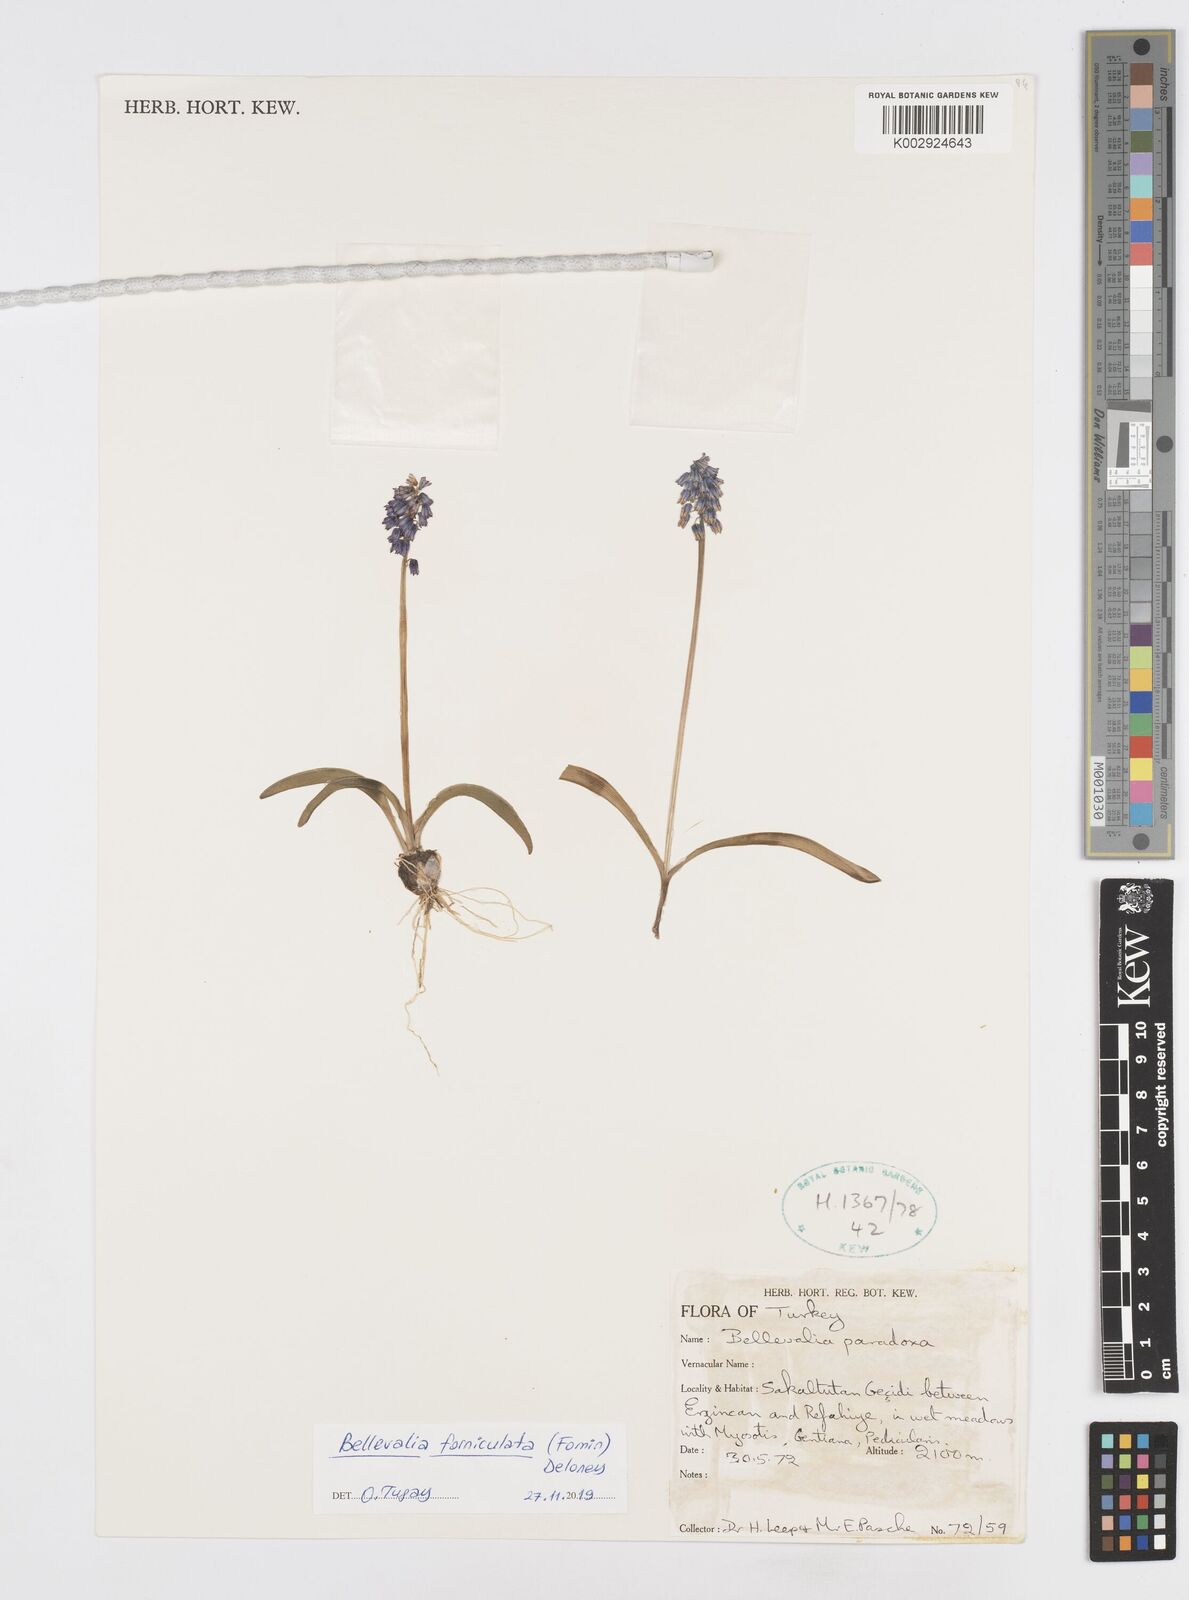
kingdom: Plantae
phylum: Tracheophyta
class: Liliopsida
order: Asparagales
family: Asparagaceae
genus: Muscari
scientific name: Muscari forniculatum
